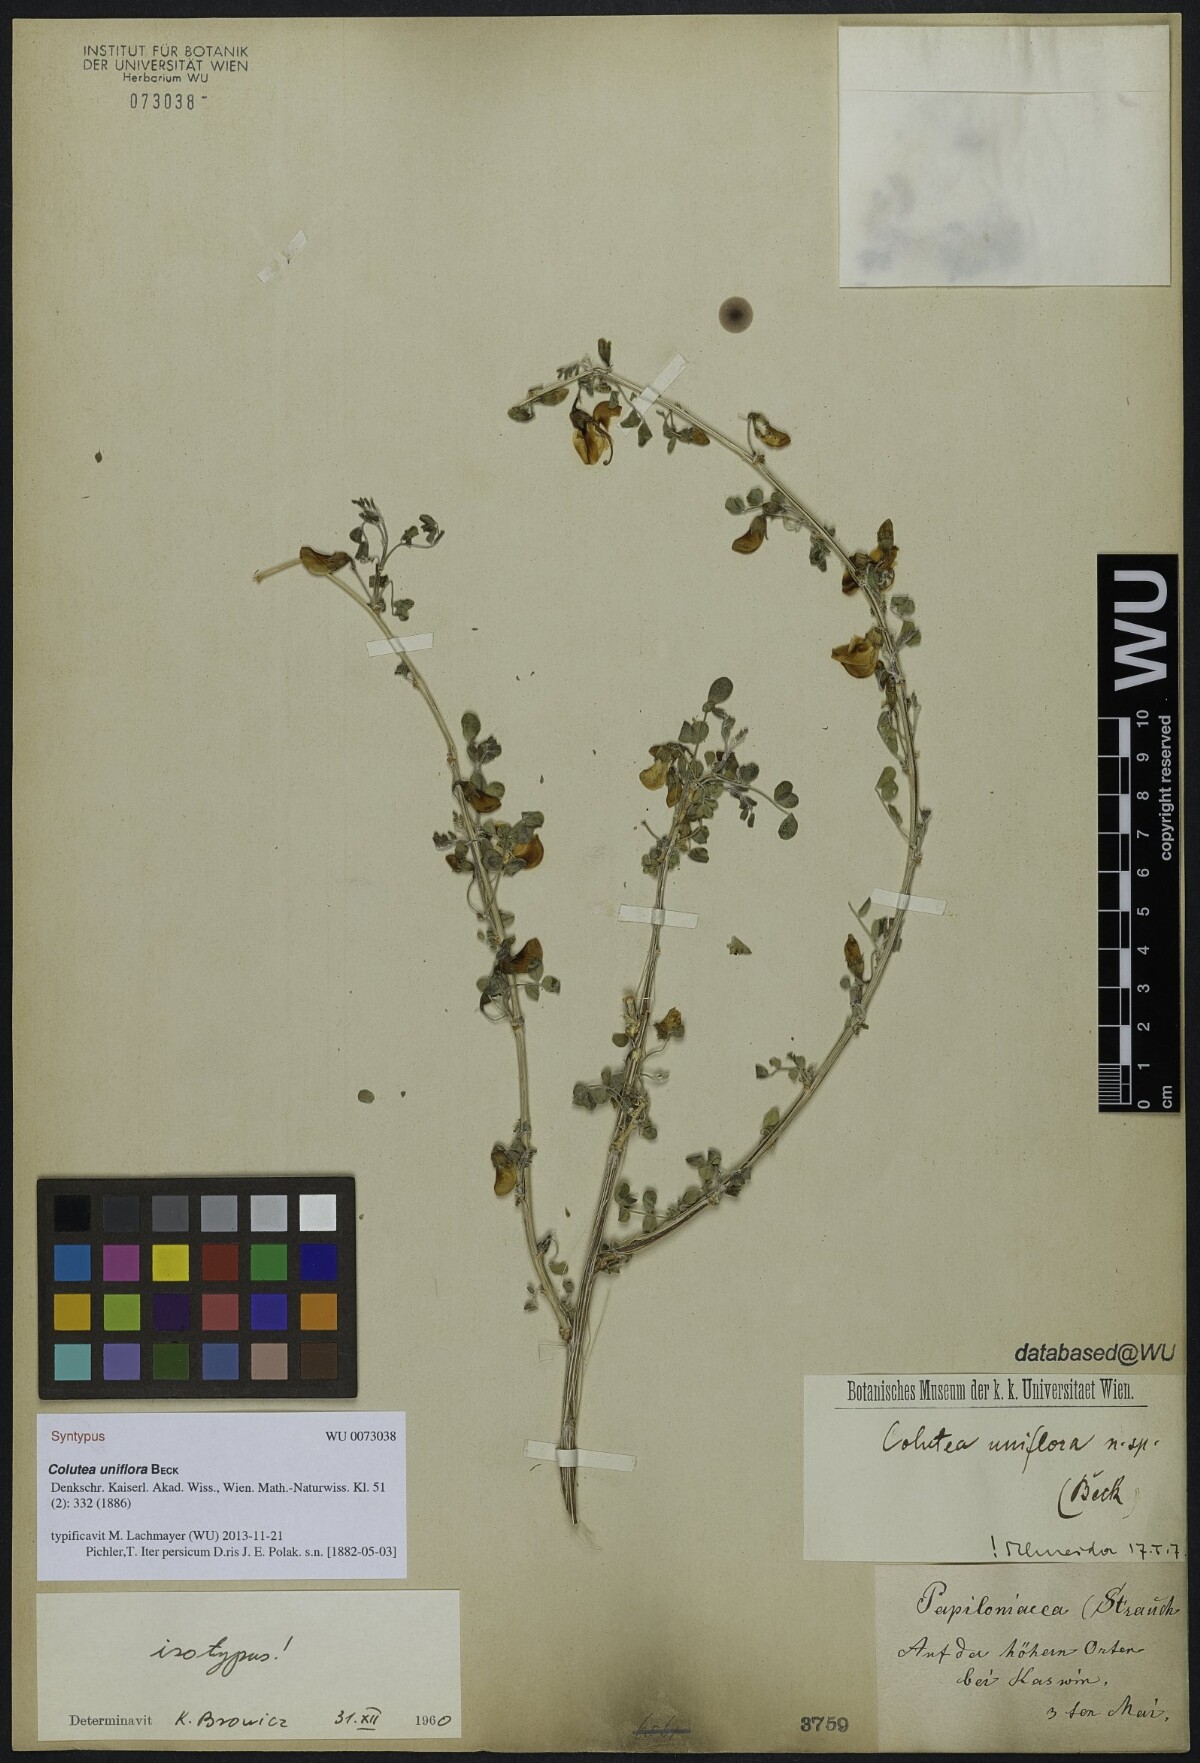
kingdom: Plantae
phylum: Tracheophyta
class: Magnoliopsida
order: Fabales
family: Fabaceae
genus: Colutea
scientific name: Colutea uniflora
